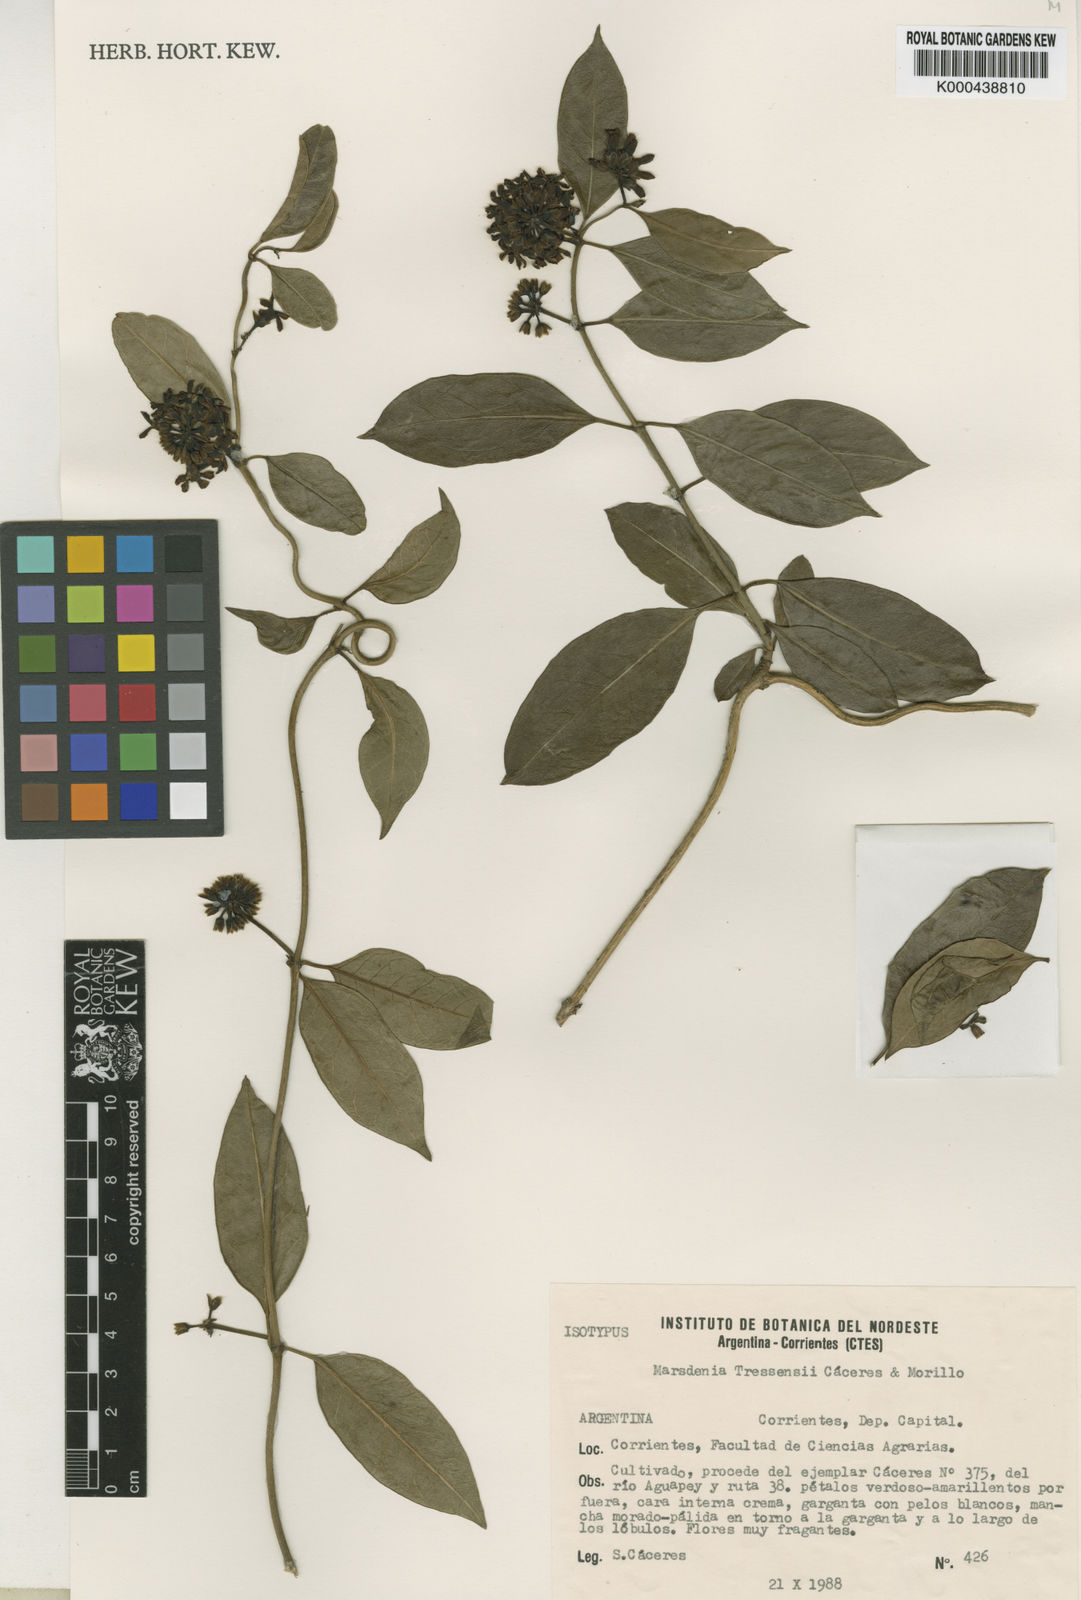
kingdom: Plantae
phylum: Tracheophyta
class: Magnoliopsida
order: Gentianales
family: Apocynaceae
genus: Ruehssia
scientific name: Ruehssia tressensiae
